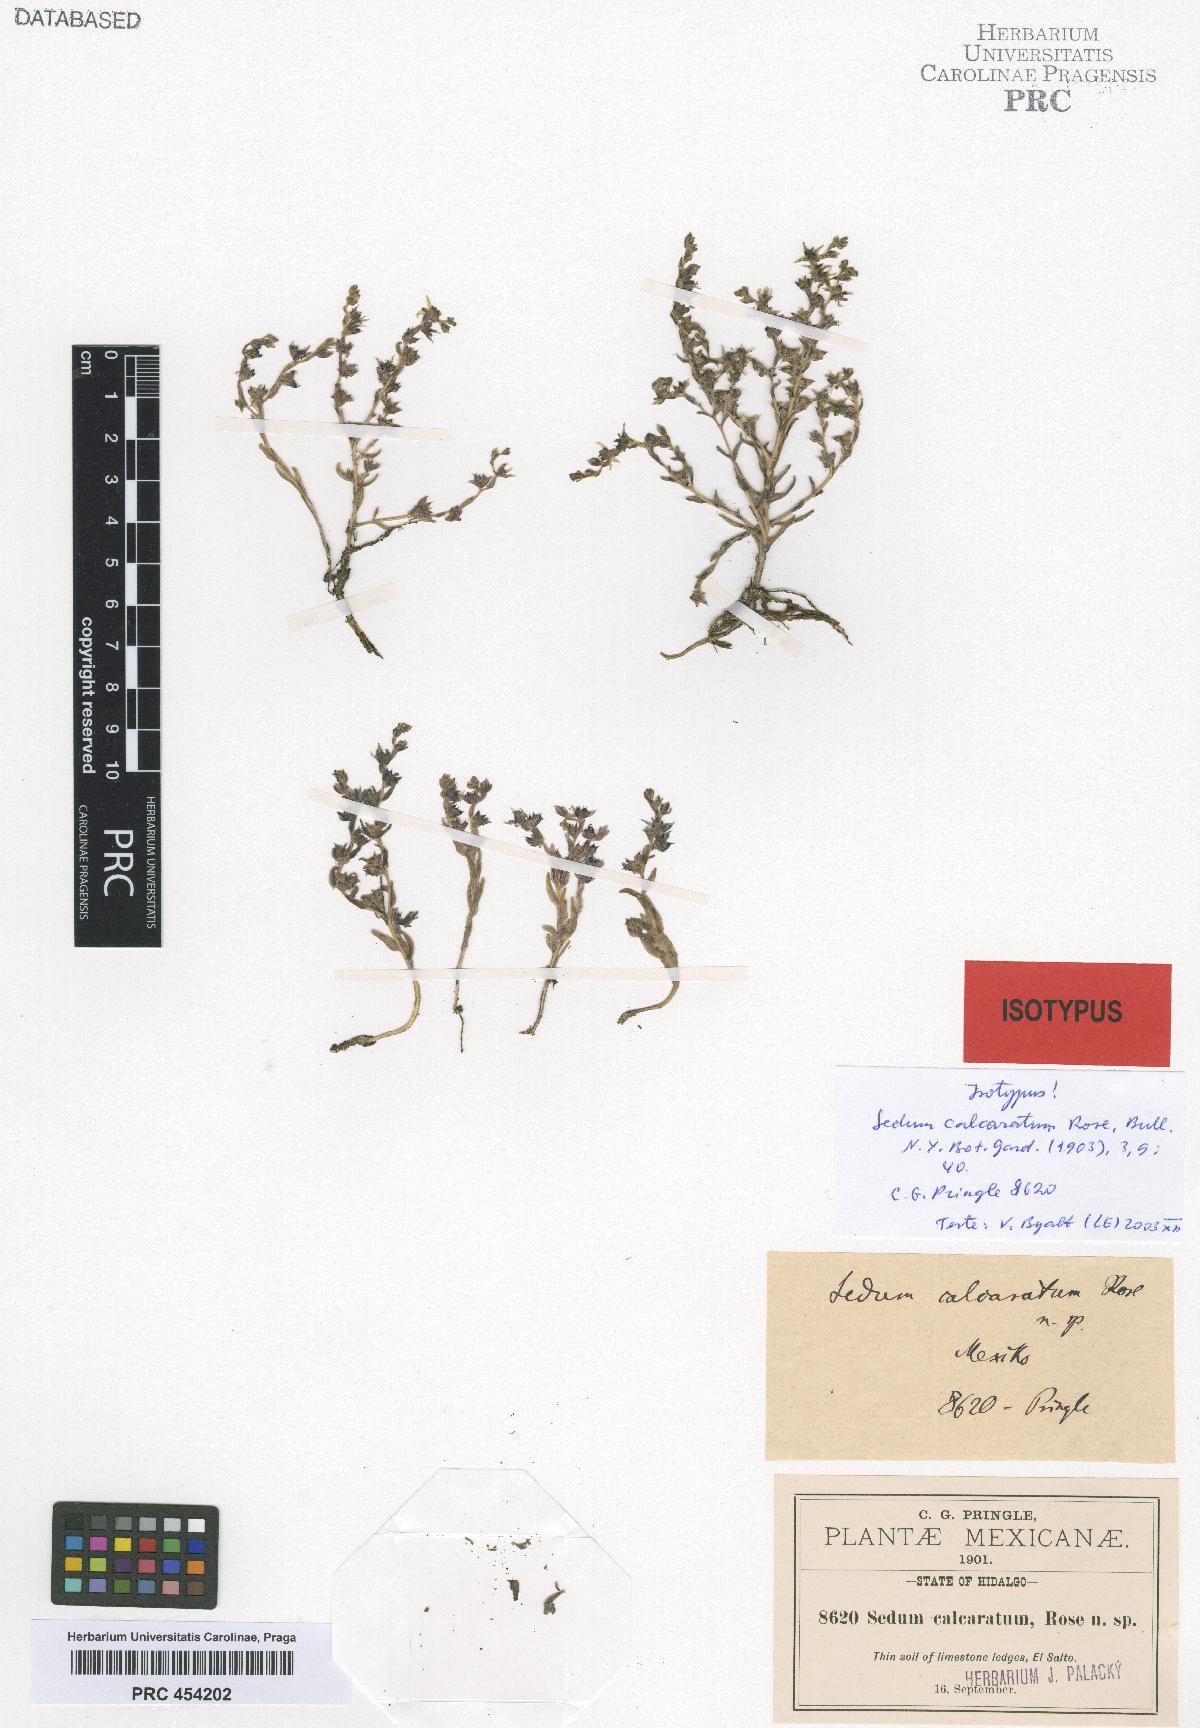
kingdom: Plantae
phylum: Tracheophyta
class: Magnoliopsida
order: Saxifragales
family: Crassulaceae
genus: Sedum
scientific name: Sedum calcaratum
